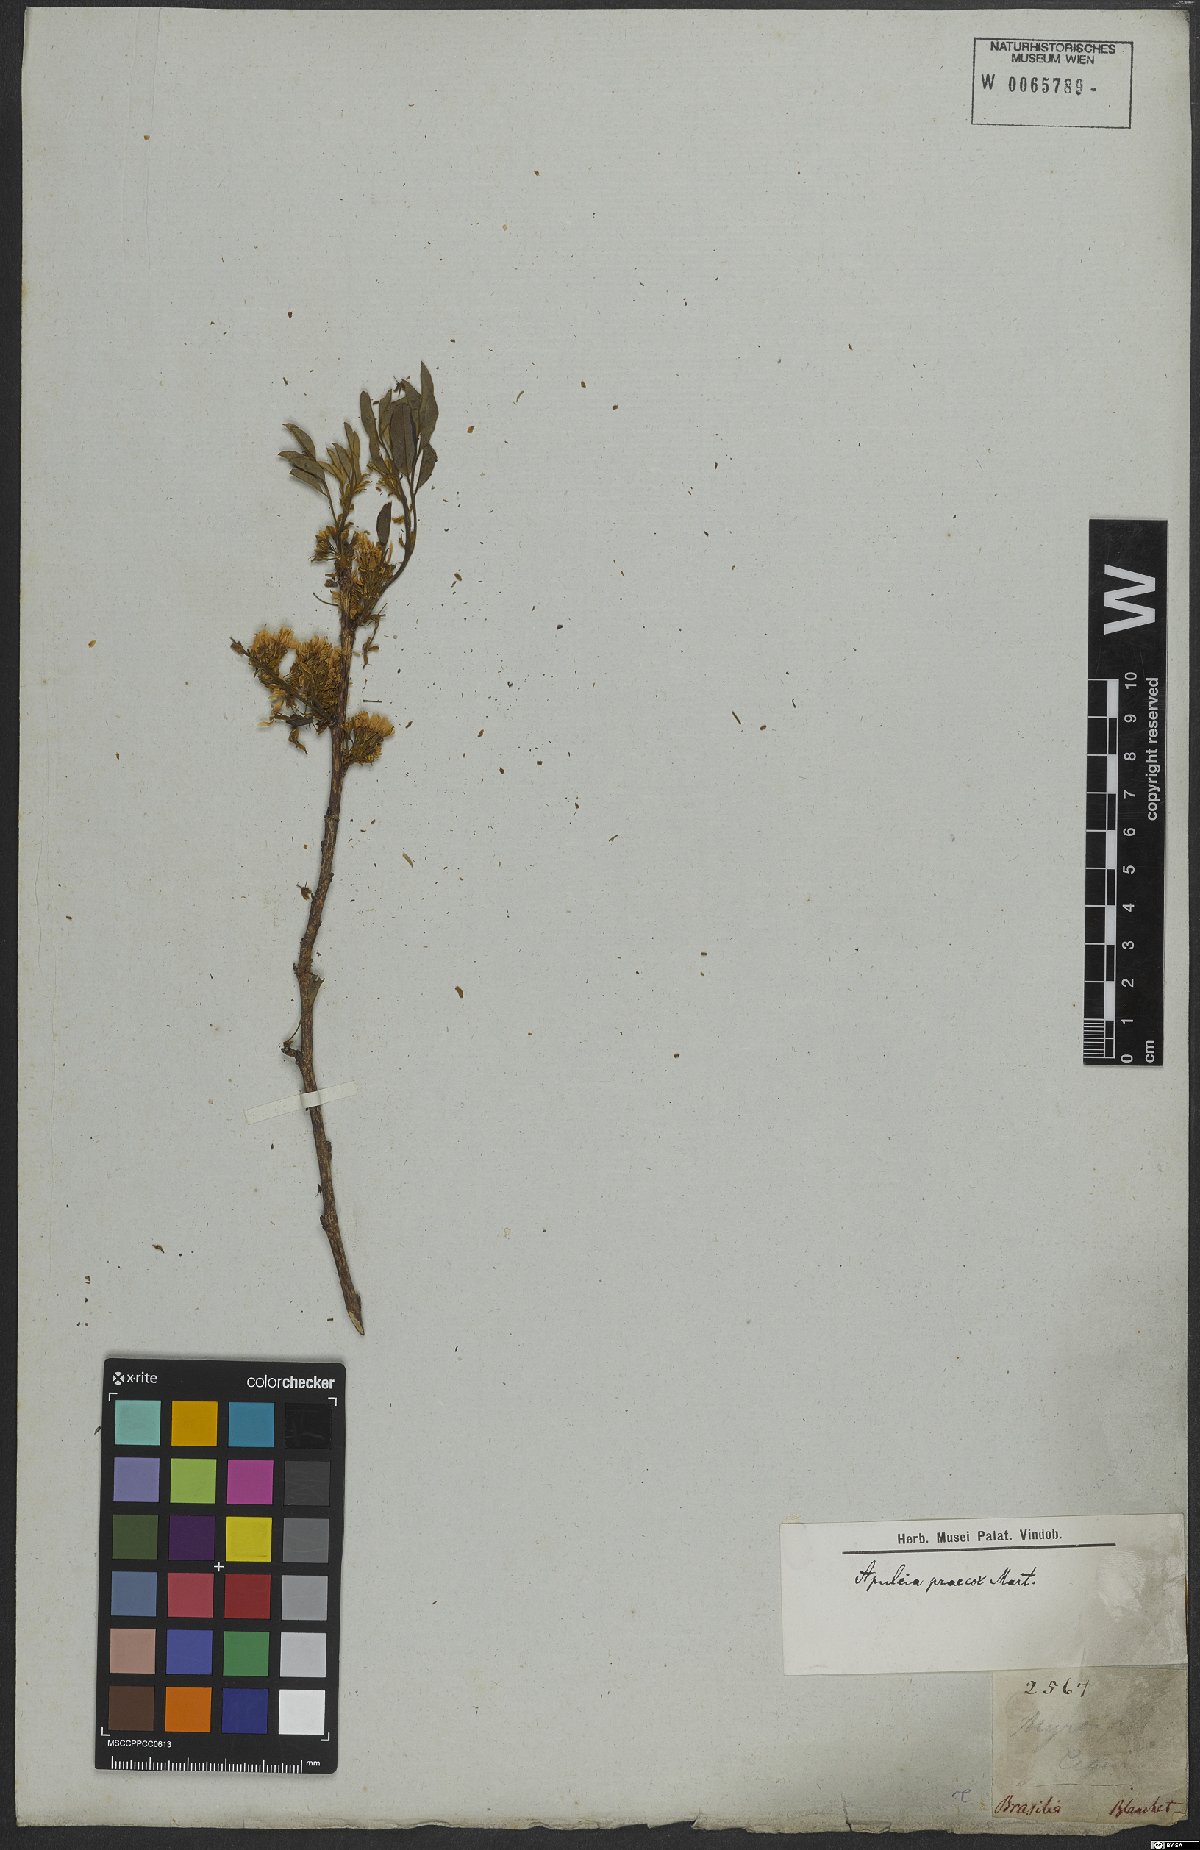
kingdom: Plantae
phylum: Tracheophyta
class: Magnoliopsida
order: Fabales
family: Fabaceae
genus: Apuleia
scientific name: Apuleia leiocarpa
